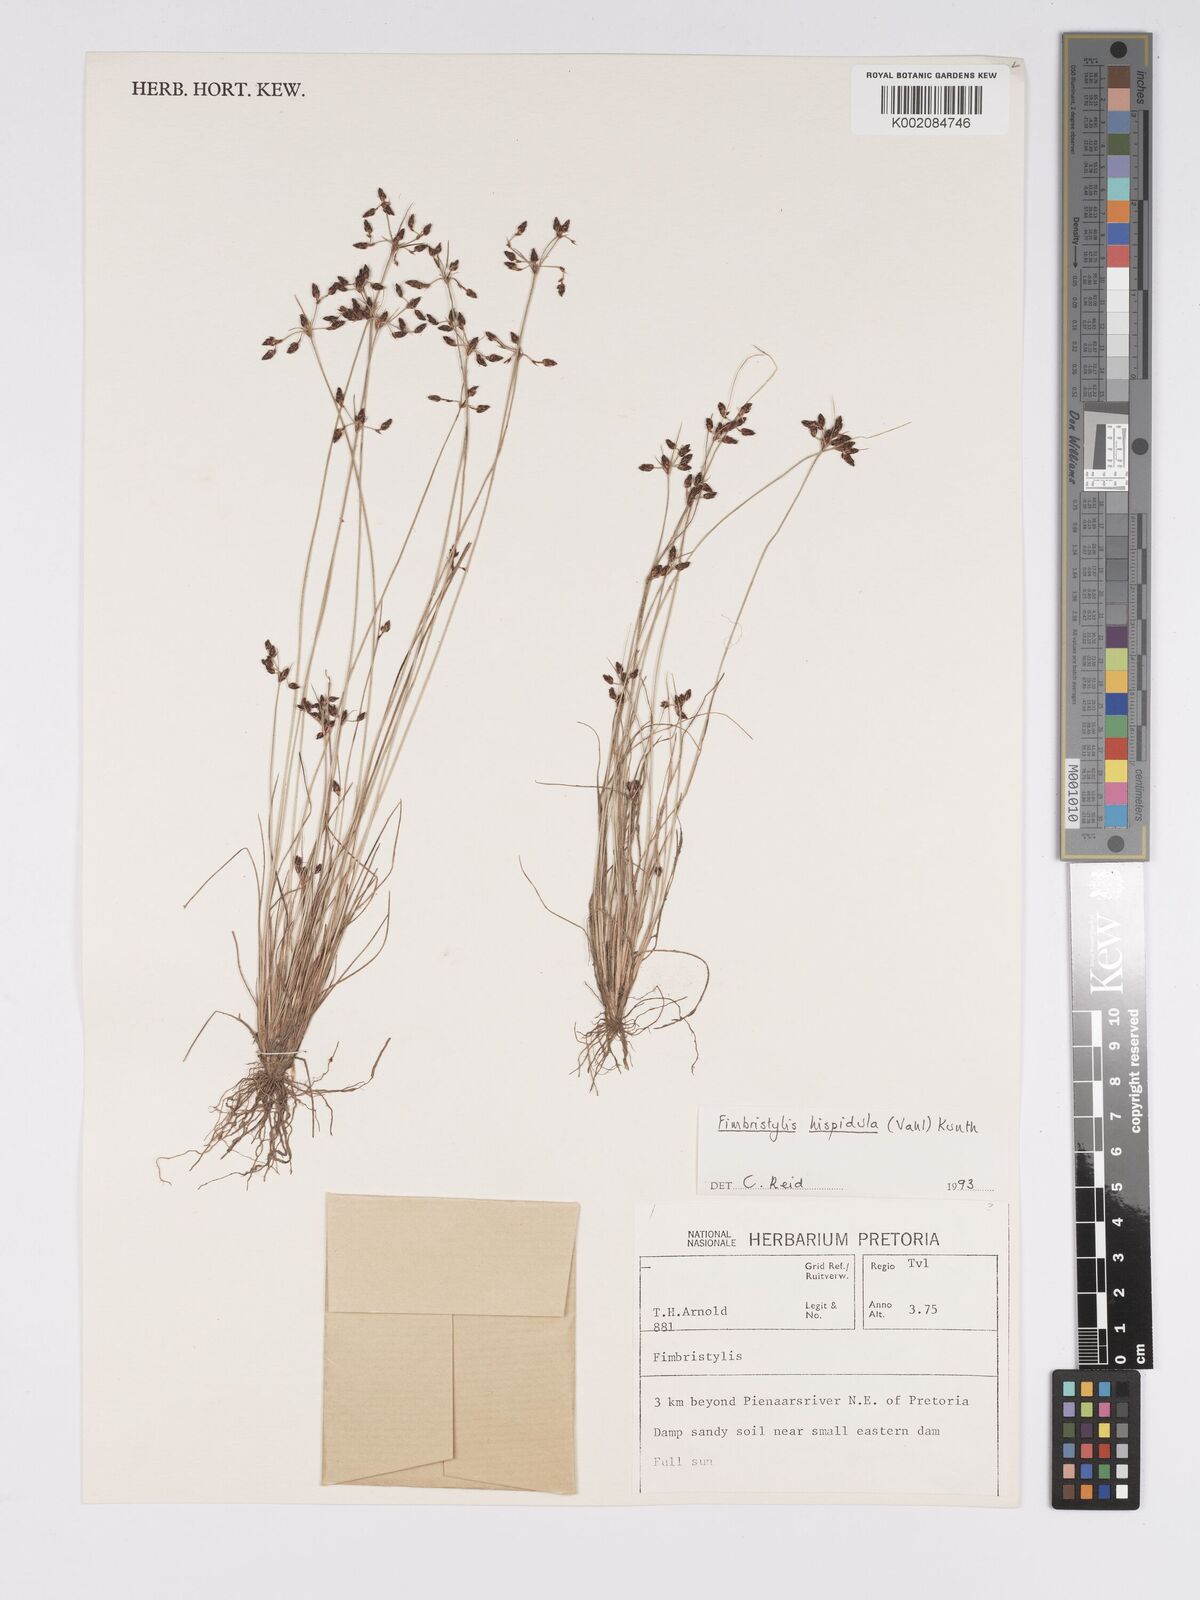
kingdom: Plantae
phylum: Tracheophyta
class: Liliopsida
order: Poales
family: Cyperaceae
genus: Bulbostylis
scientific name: Bulbostylis
